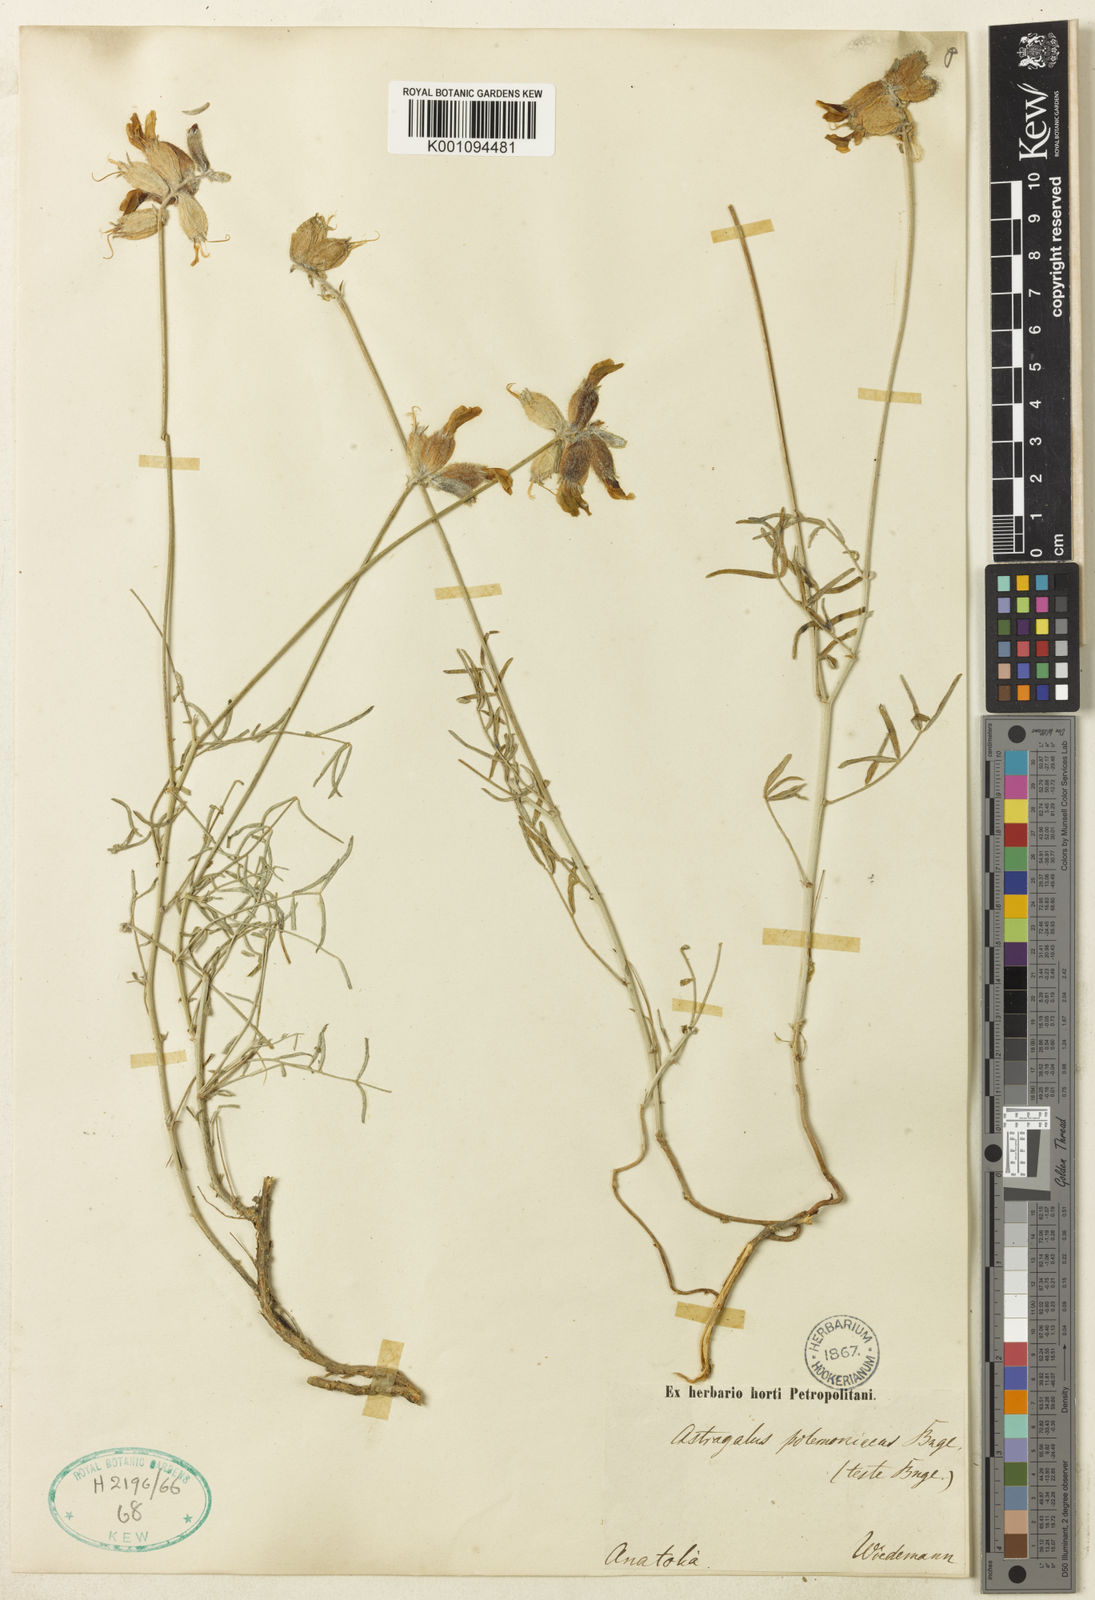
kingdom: Plantae
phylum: Tracheophyta
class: Magnoliopsida
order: Fabales
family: Fabaceae
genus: Astragalus
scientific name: Astragalus
